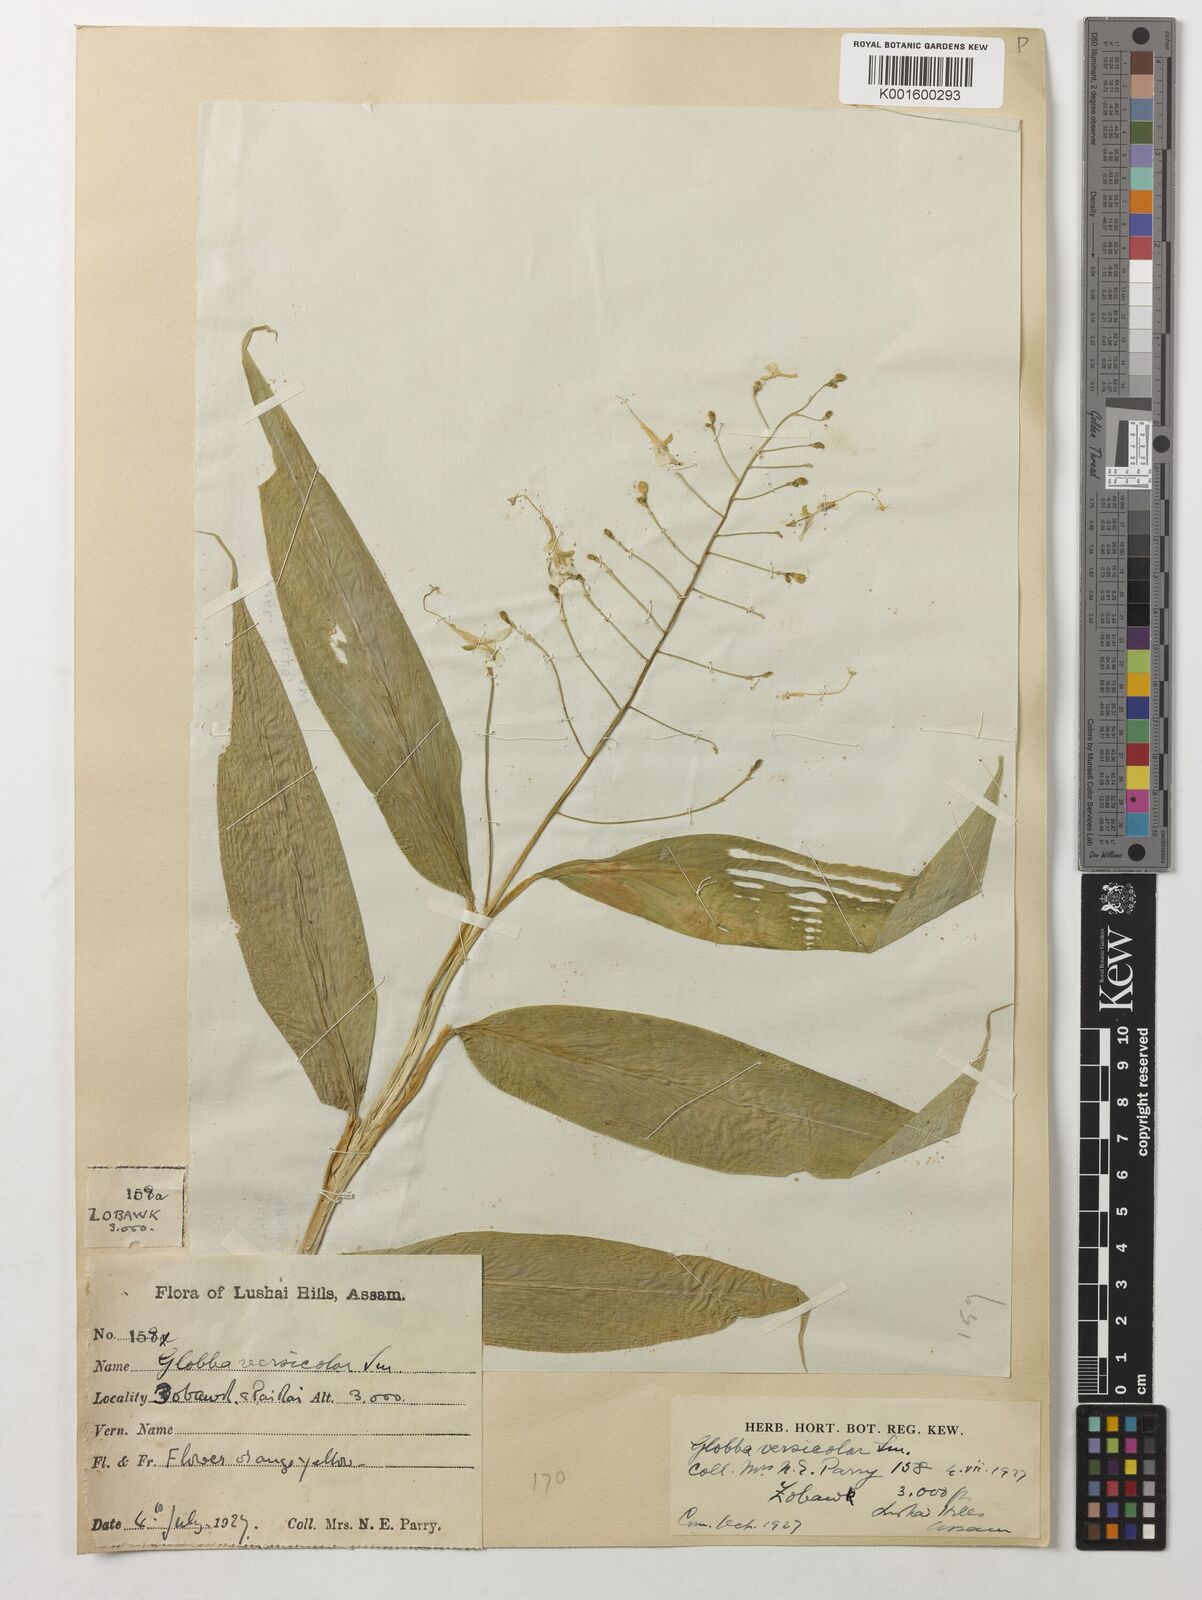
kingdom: Plantae
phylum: Tracheophyta
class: Liliopsida
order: Zingiberales
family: Zingiberaceae
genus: Globba
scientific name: Globba pendula
